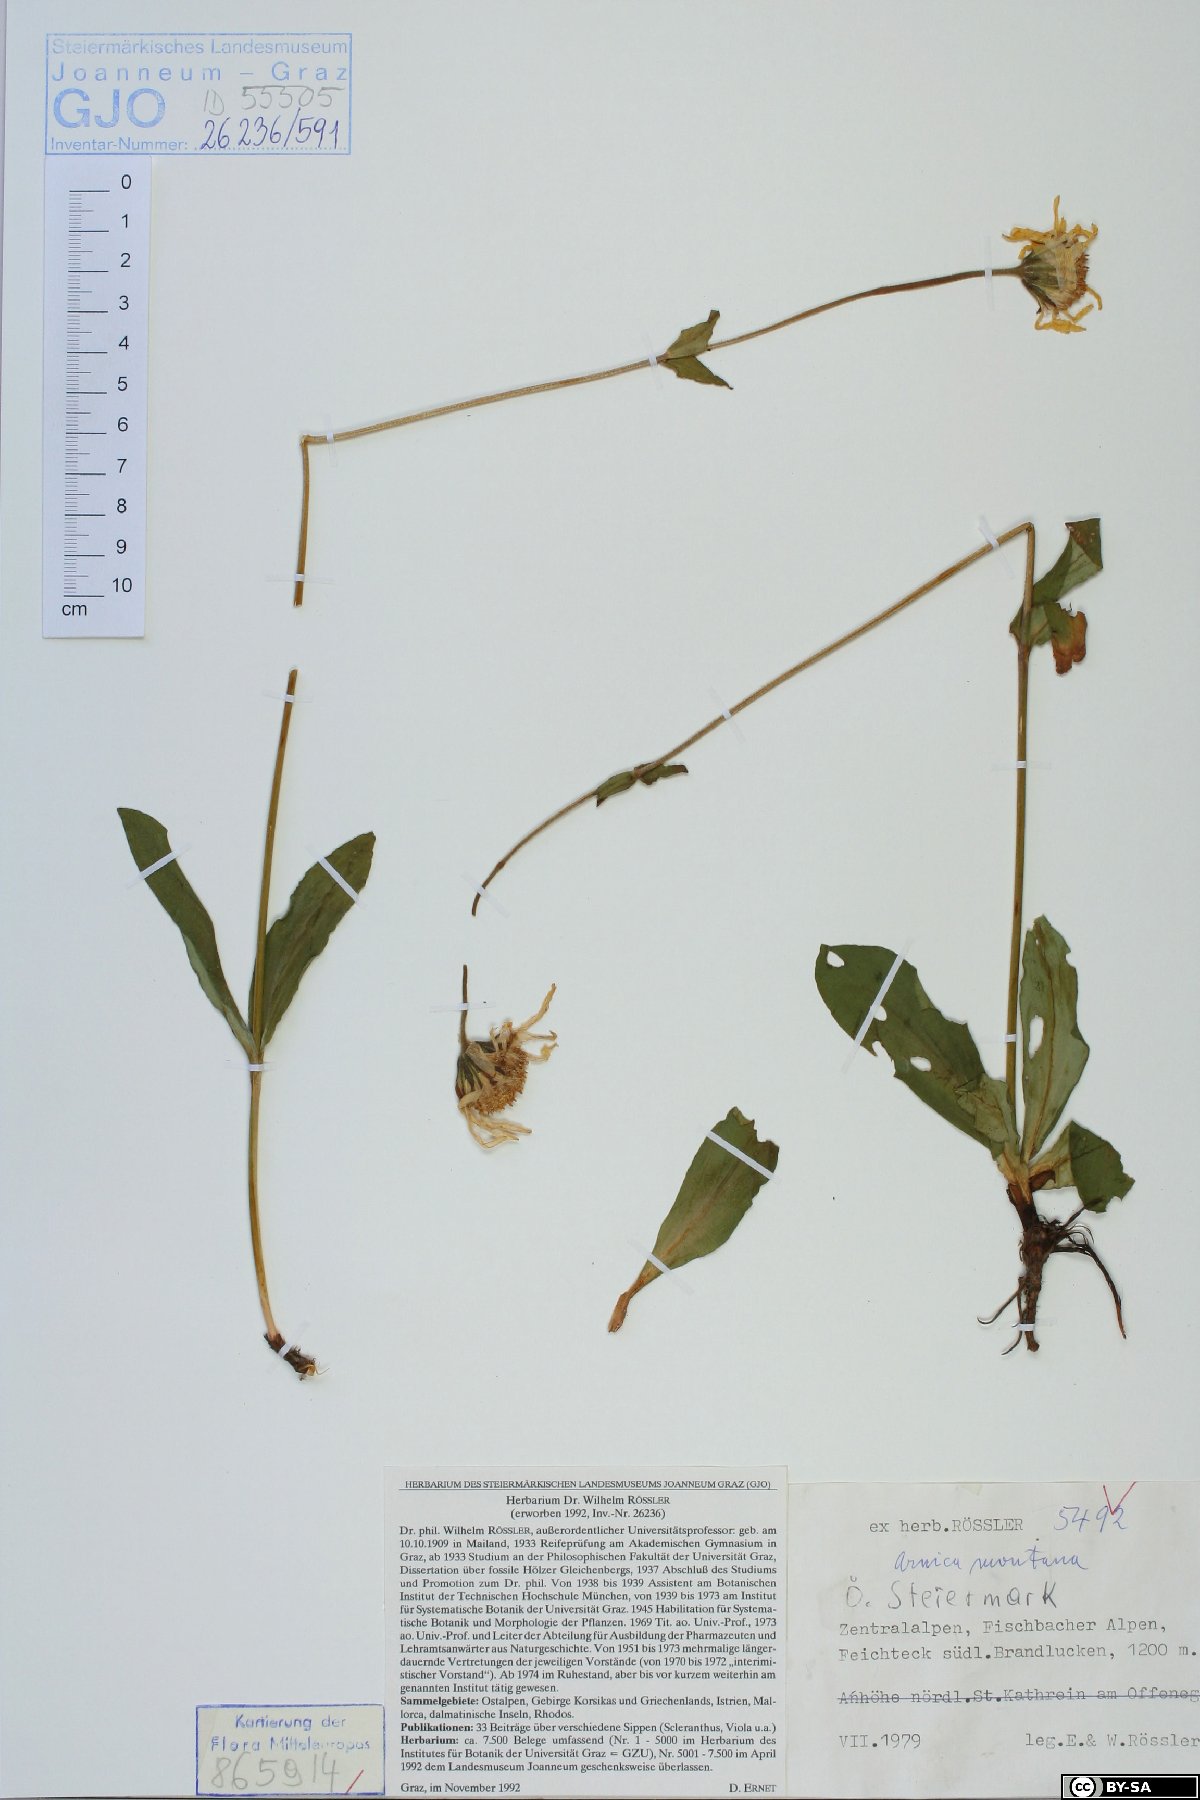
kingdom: Plantae
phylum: Tracheophyta
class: Magnoliopsida
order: Asterales
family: Asteraceae
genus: Arnica
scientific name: Arnica montana
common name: Leopard's bane
